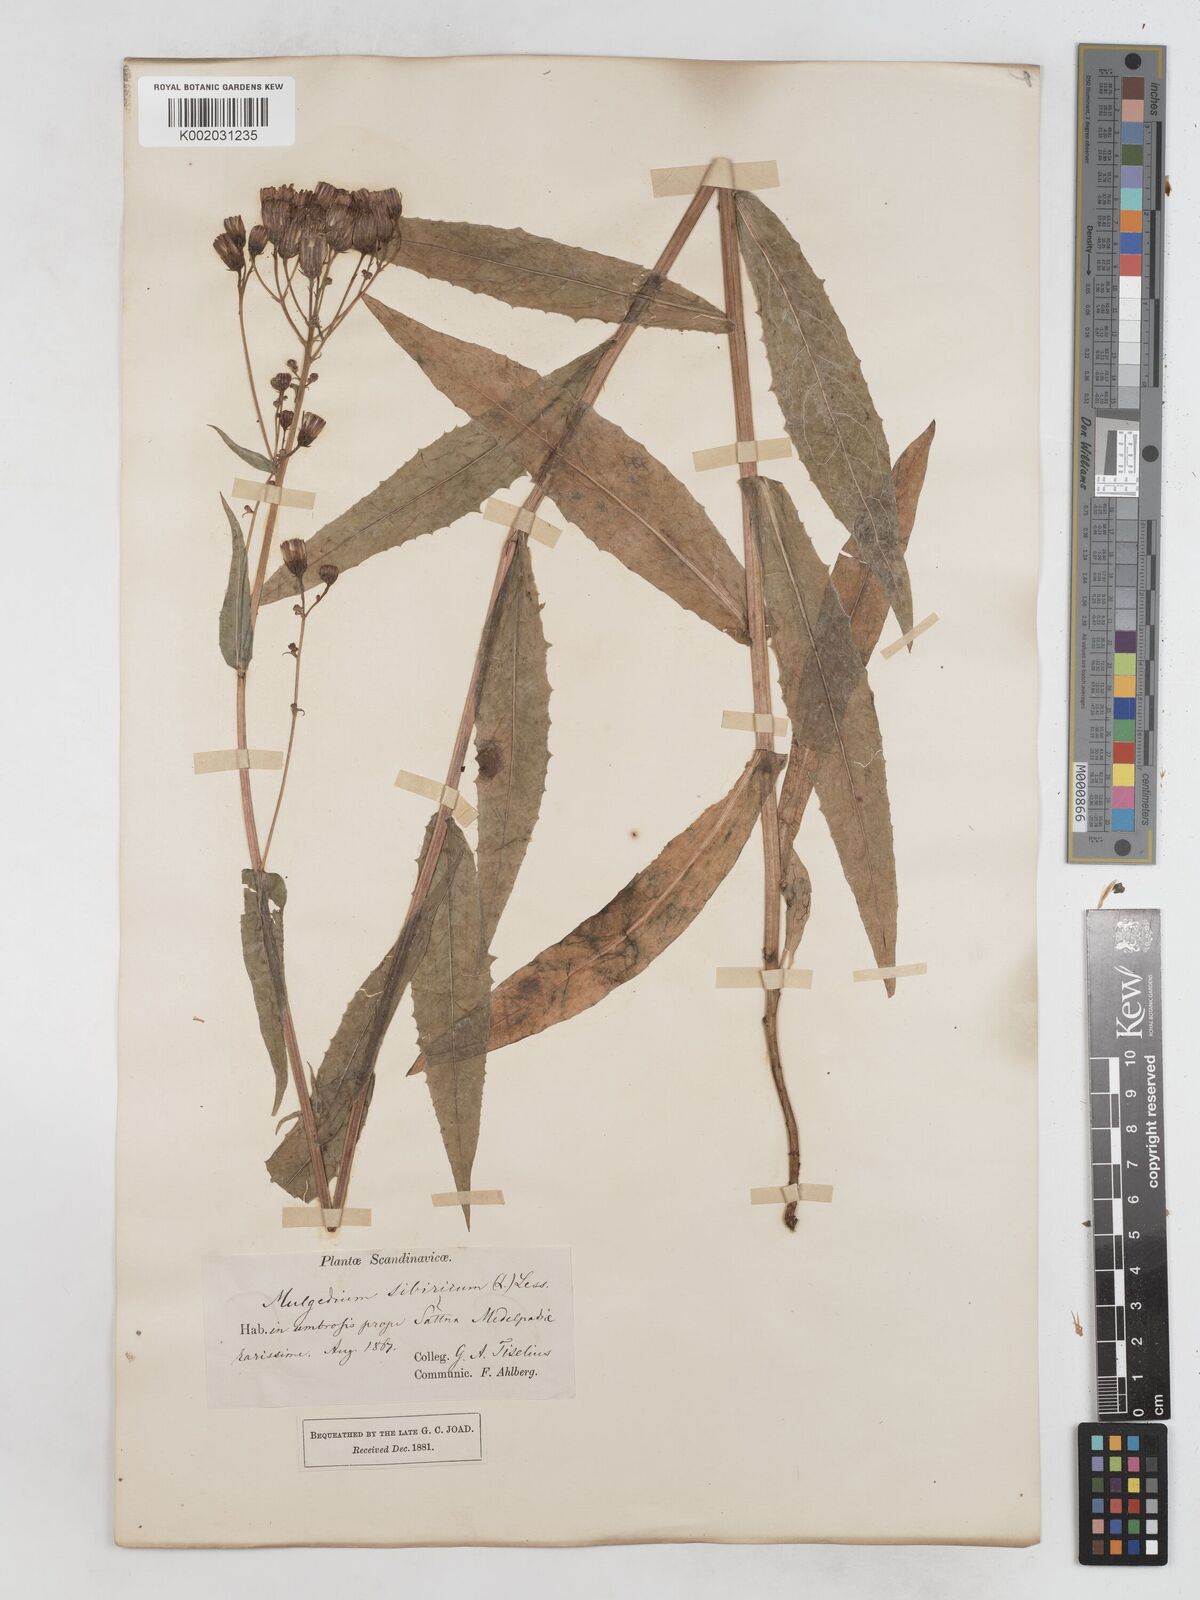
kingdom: Plantae
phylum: Tracheophyta
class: Magnoliopsida
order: Asterales
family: Asteraceae
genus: Lactuca
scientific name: Lactuca sibirica
